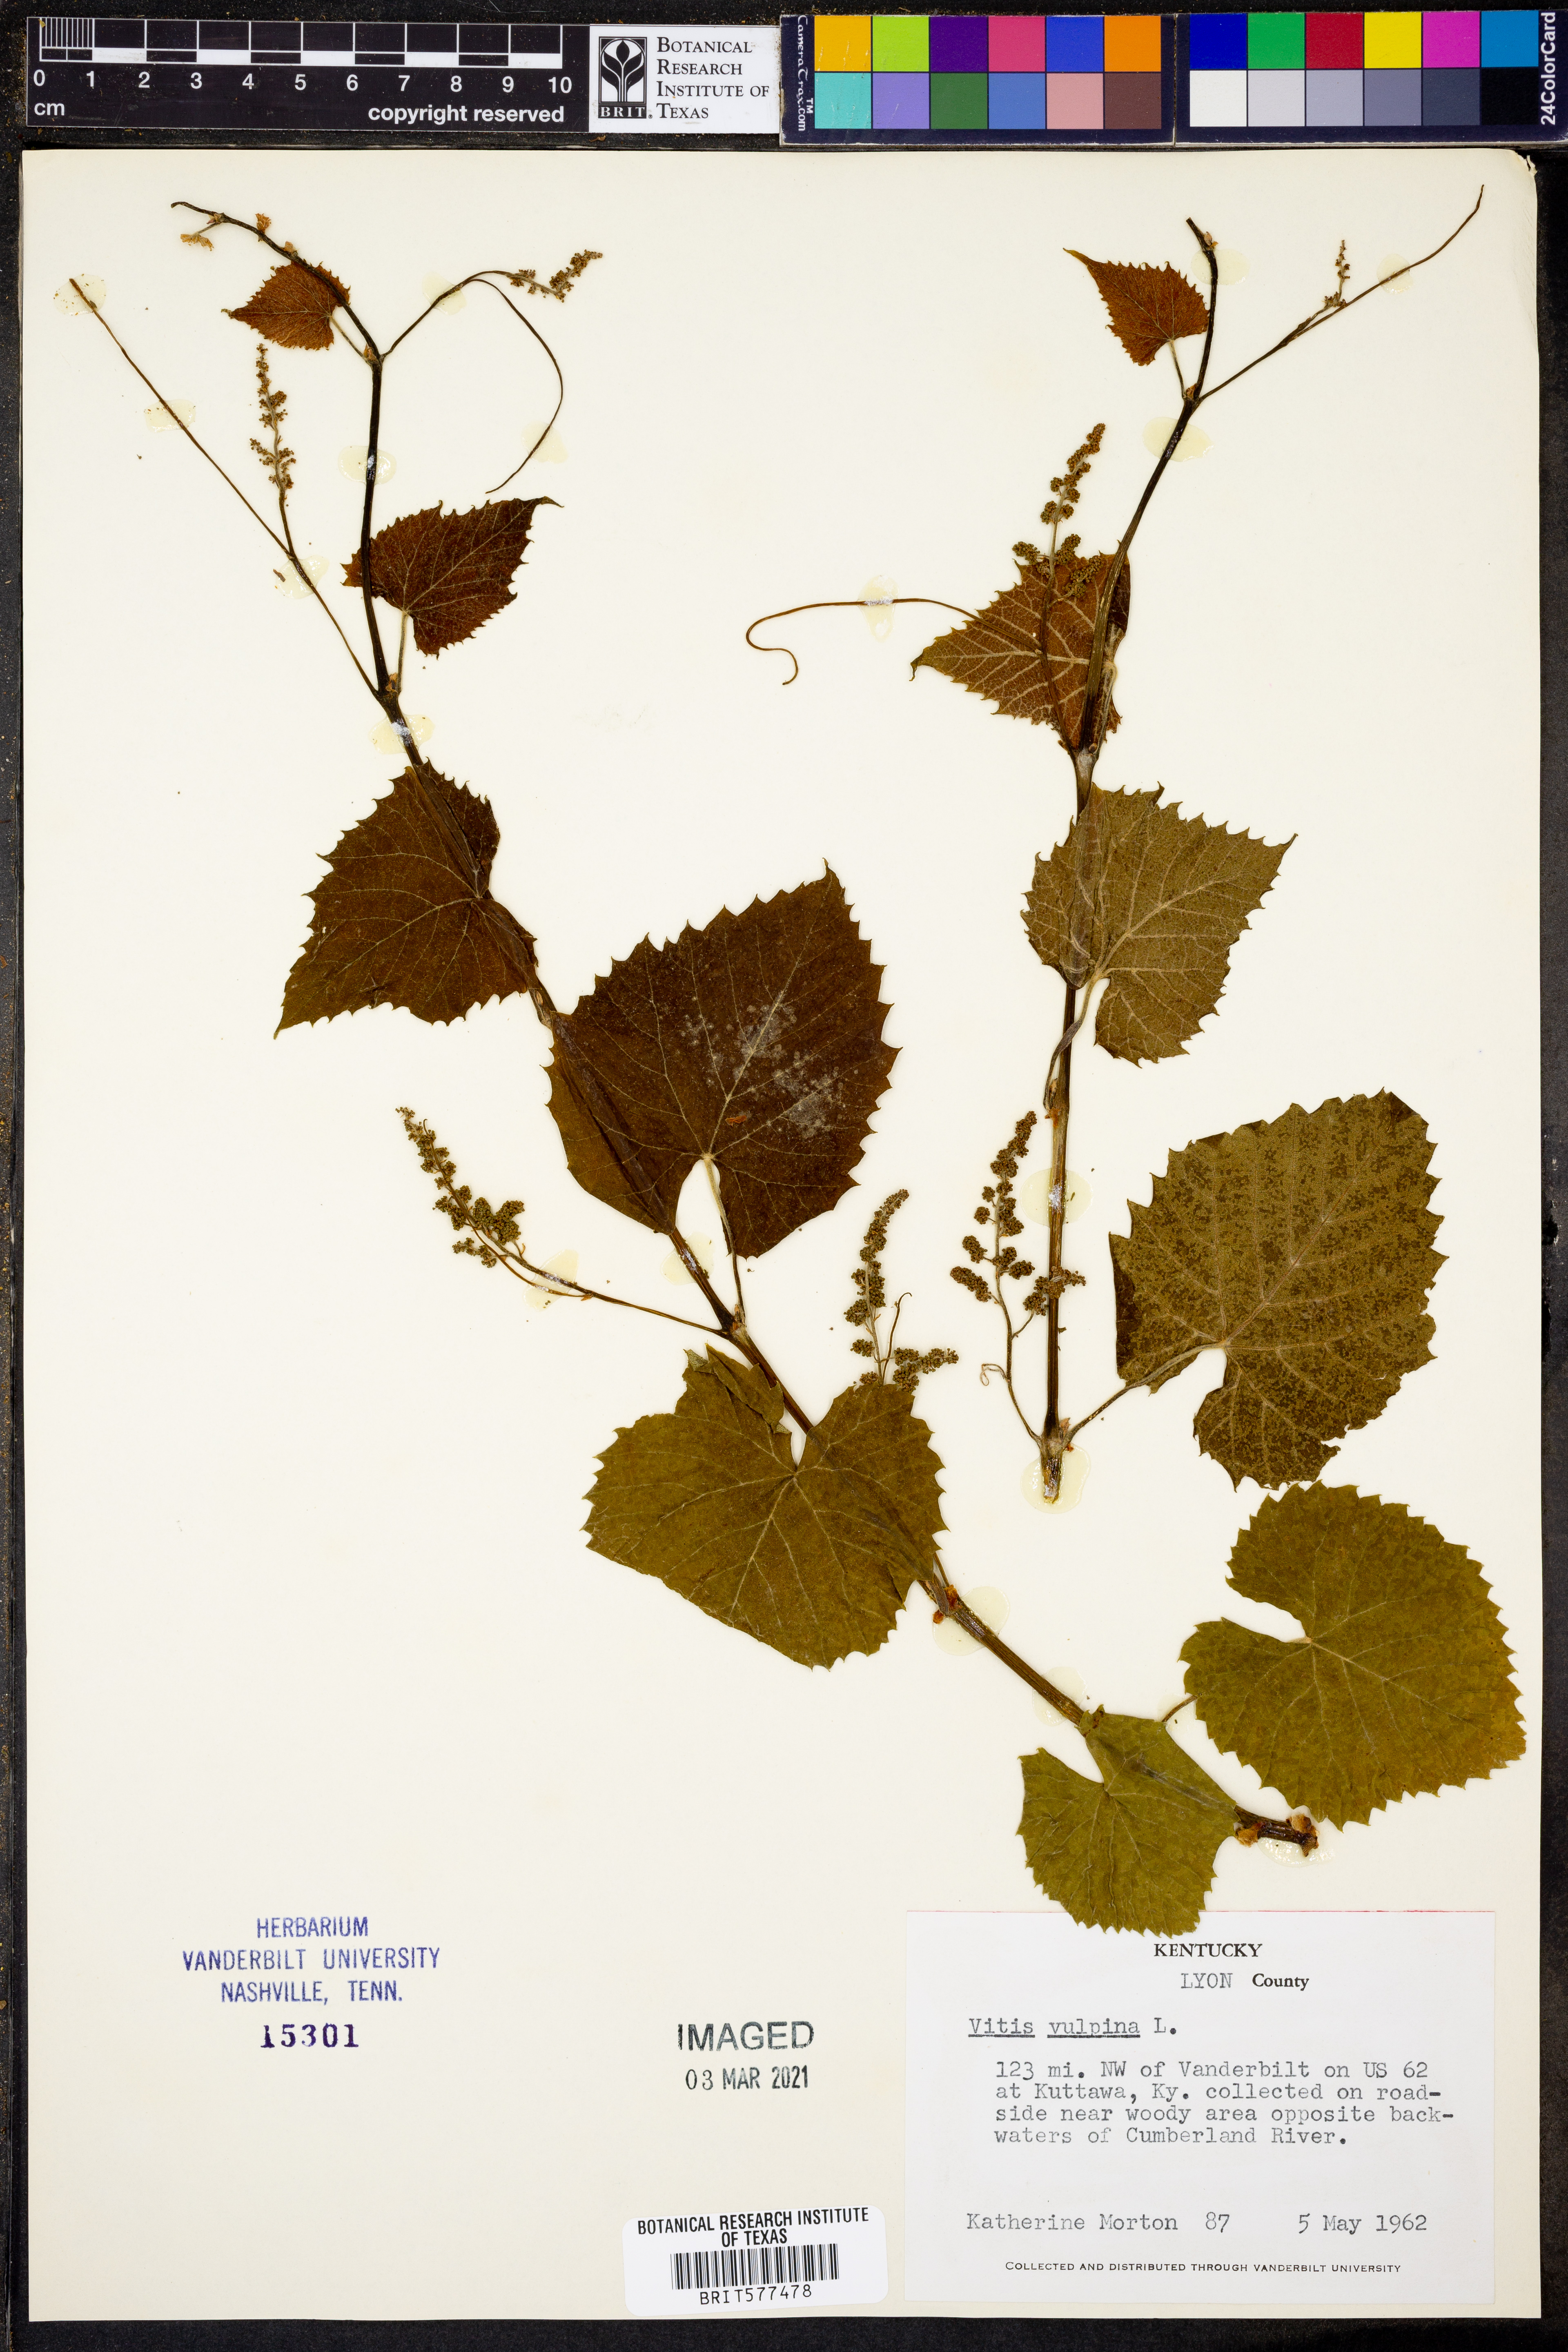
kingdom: Plantae
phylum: Tracheophyta
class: Magnoliopsida
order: Vitales
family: Vitaceae
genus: Vitis
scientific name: Vitis vulpina
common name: Frost grape
